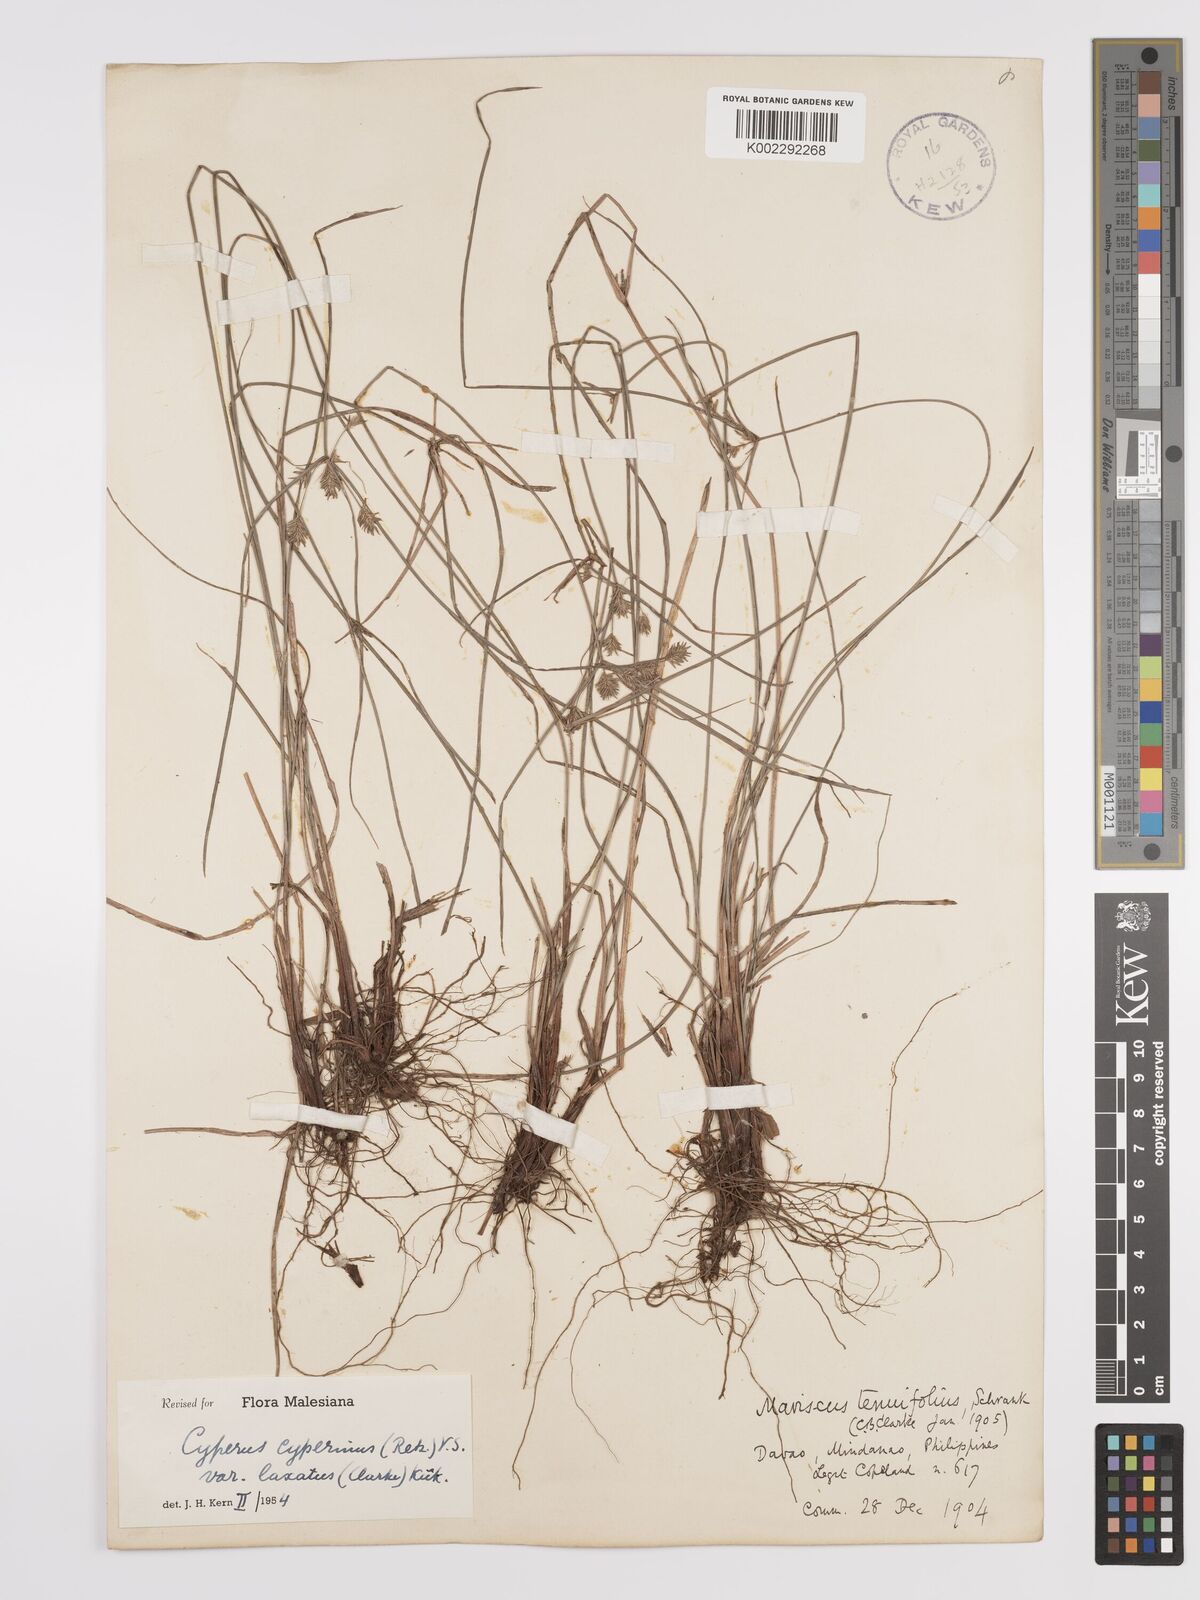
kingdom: Plantae
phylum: Tracheophyta
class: Liliopsida
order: Poales
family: Cyperaceae
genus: Cyperus
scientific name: Cyperus cyperinus
